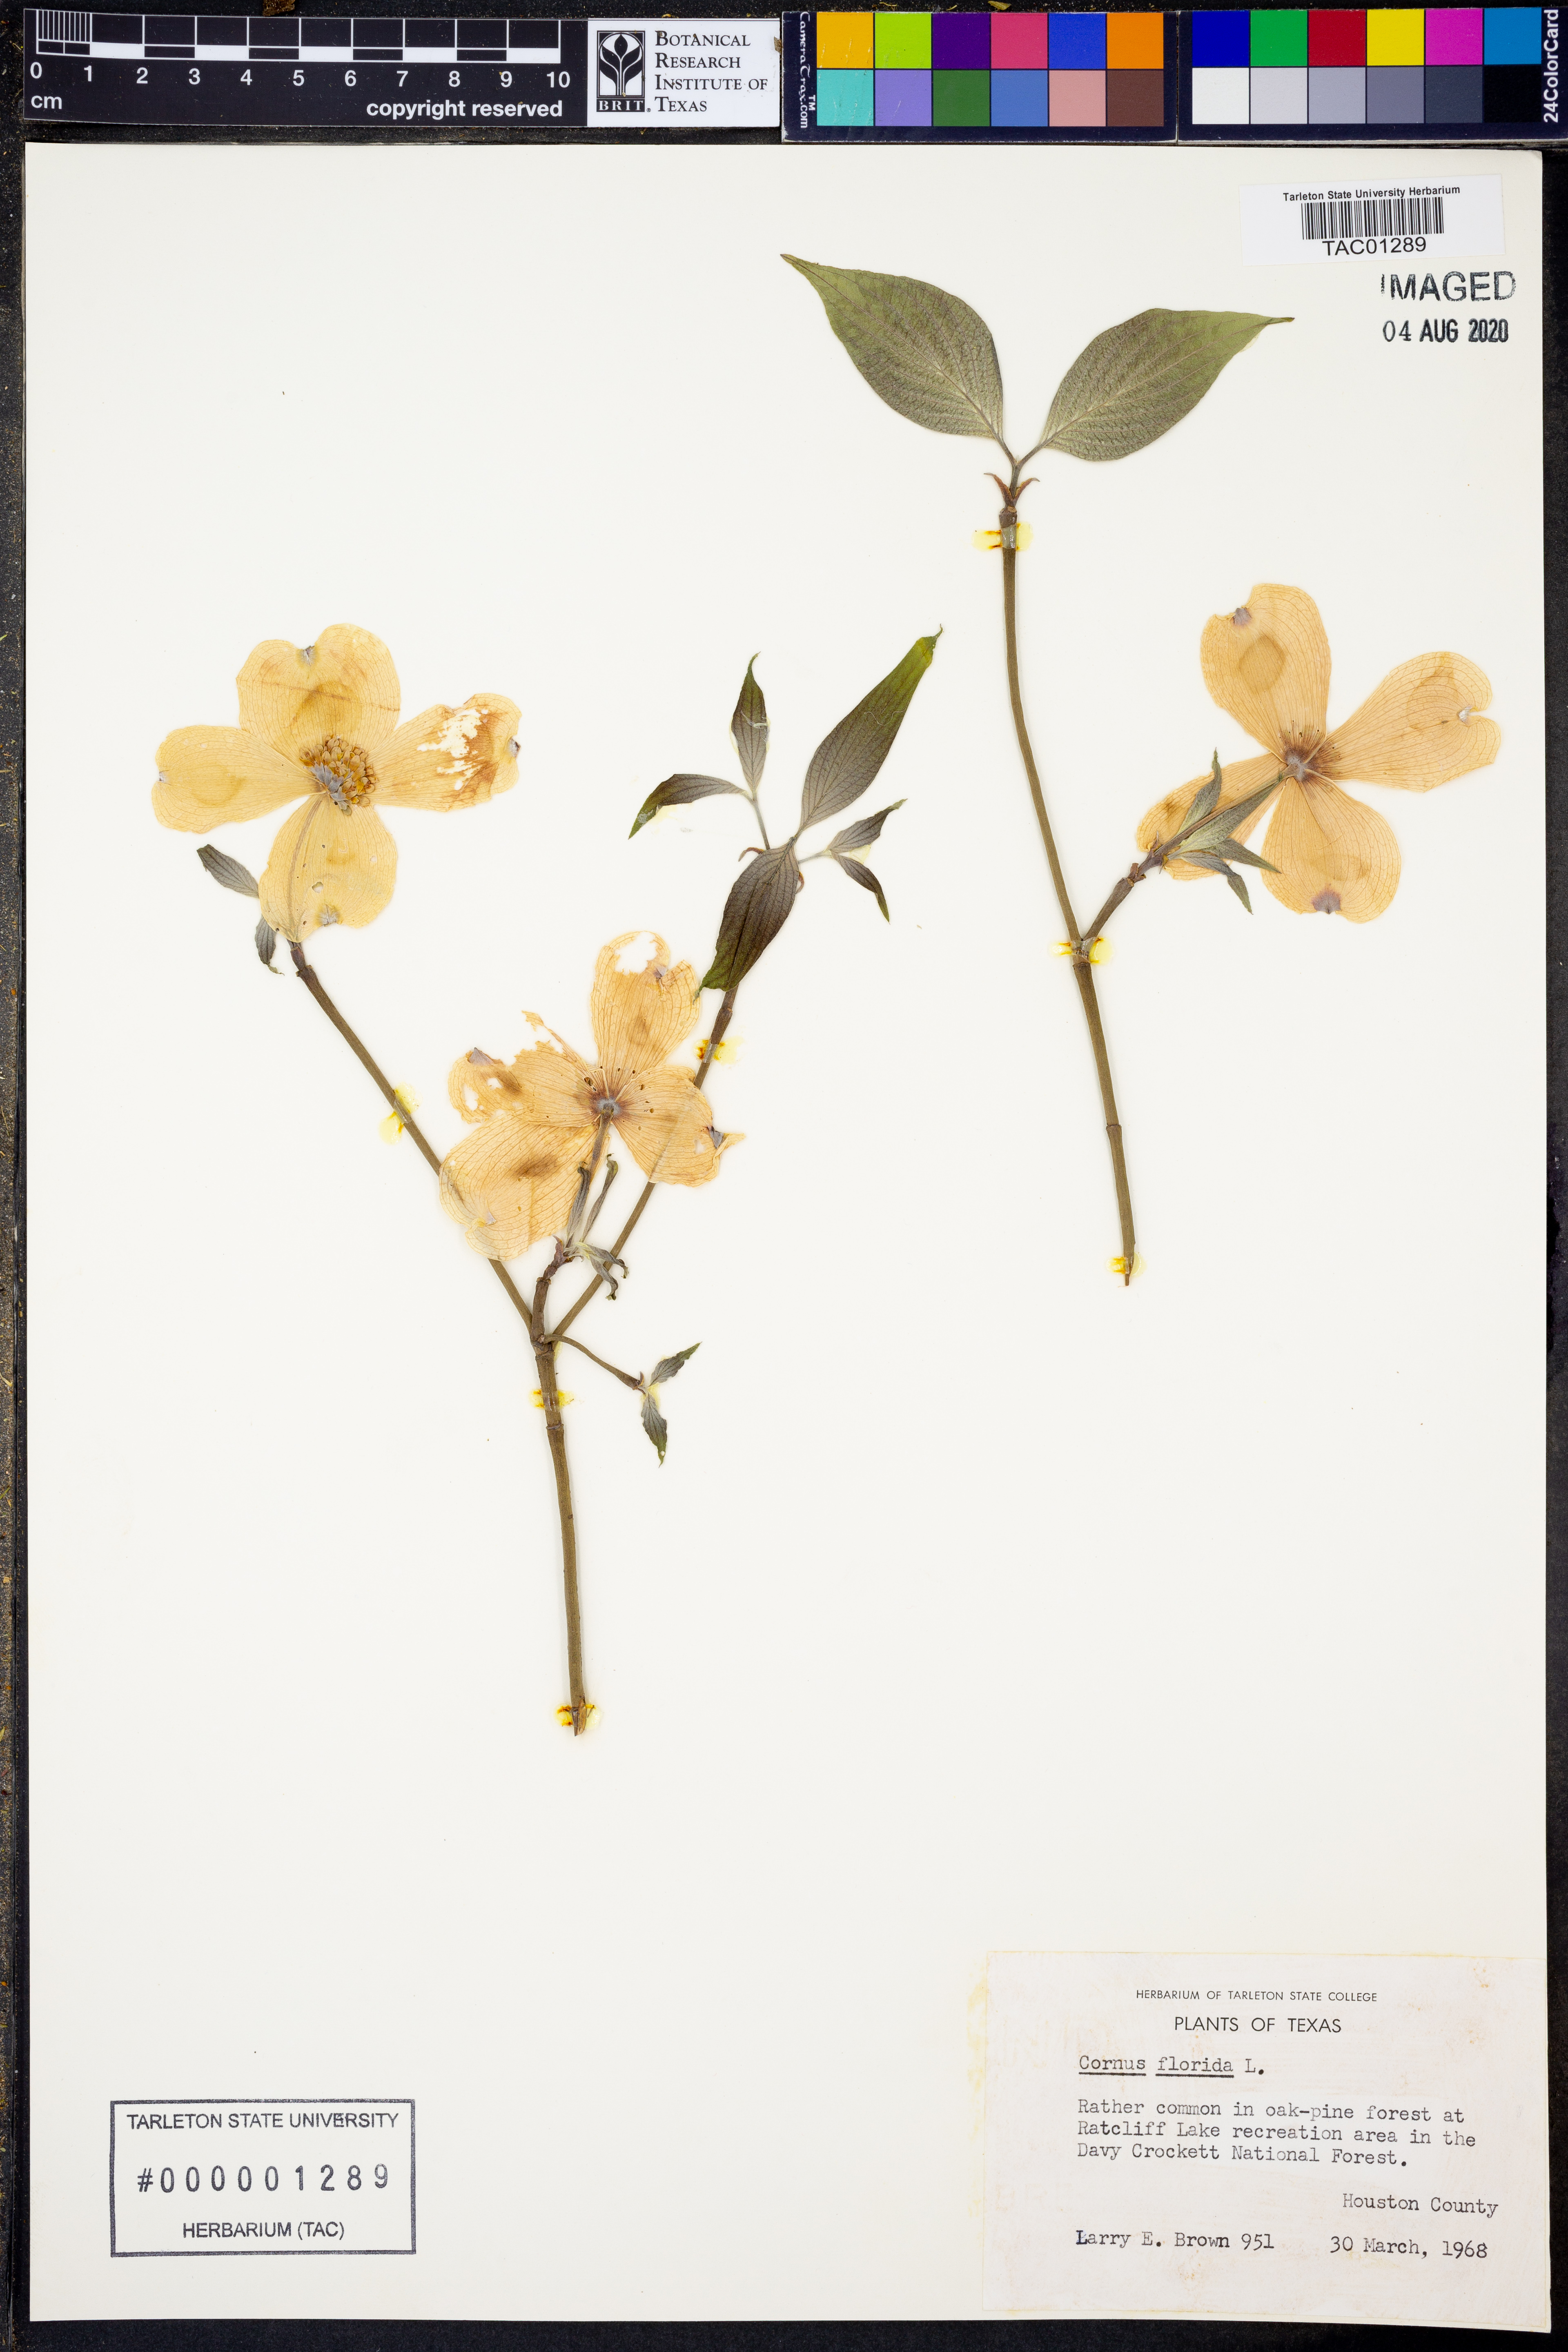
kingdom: Plantae
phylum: Tracheophyta
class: Magnoliopsida
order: Cornales
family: Cornaceae
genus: Cornus
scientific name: Cornus florida
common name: Flowering dogwood
